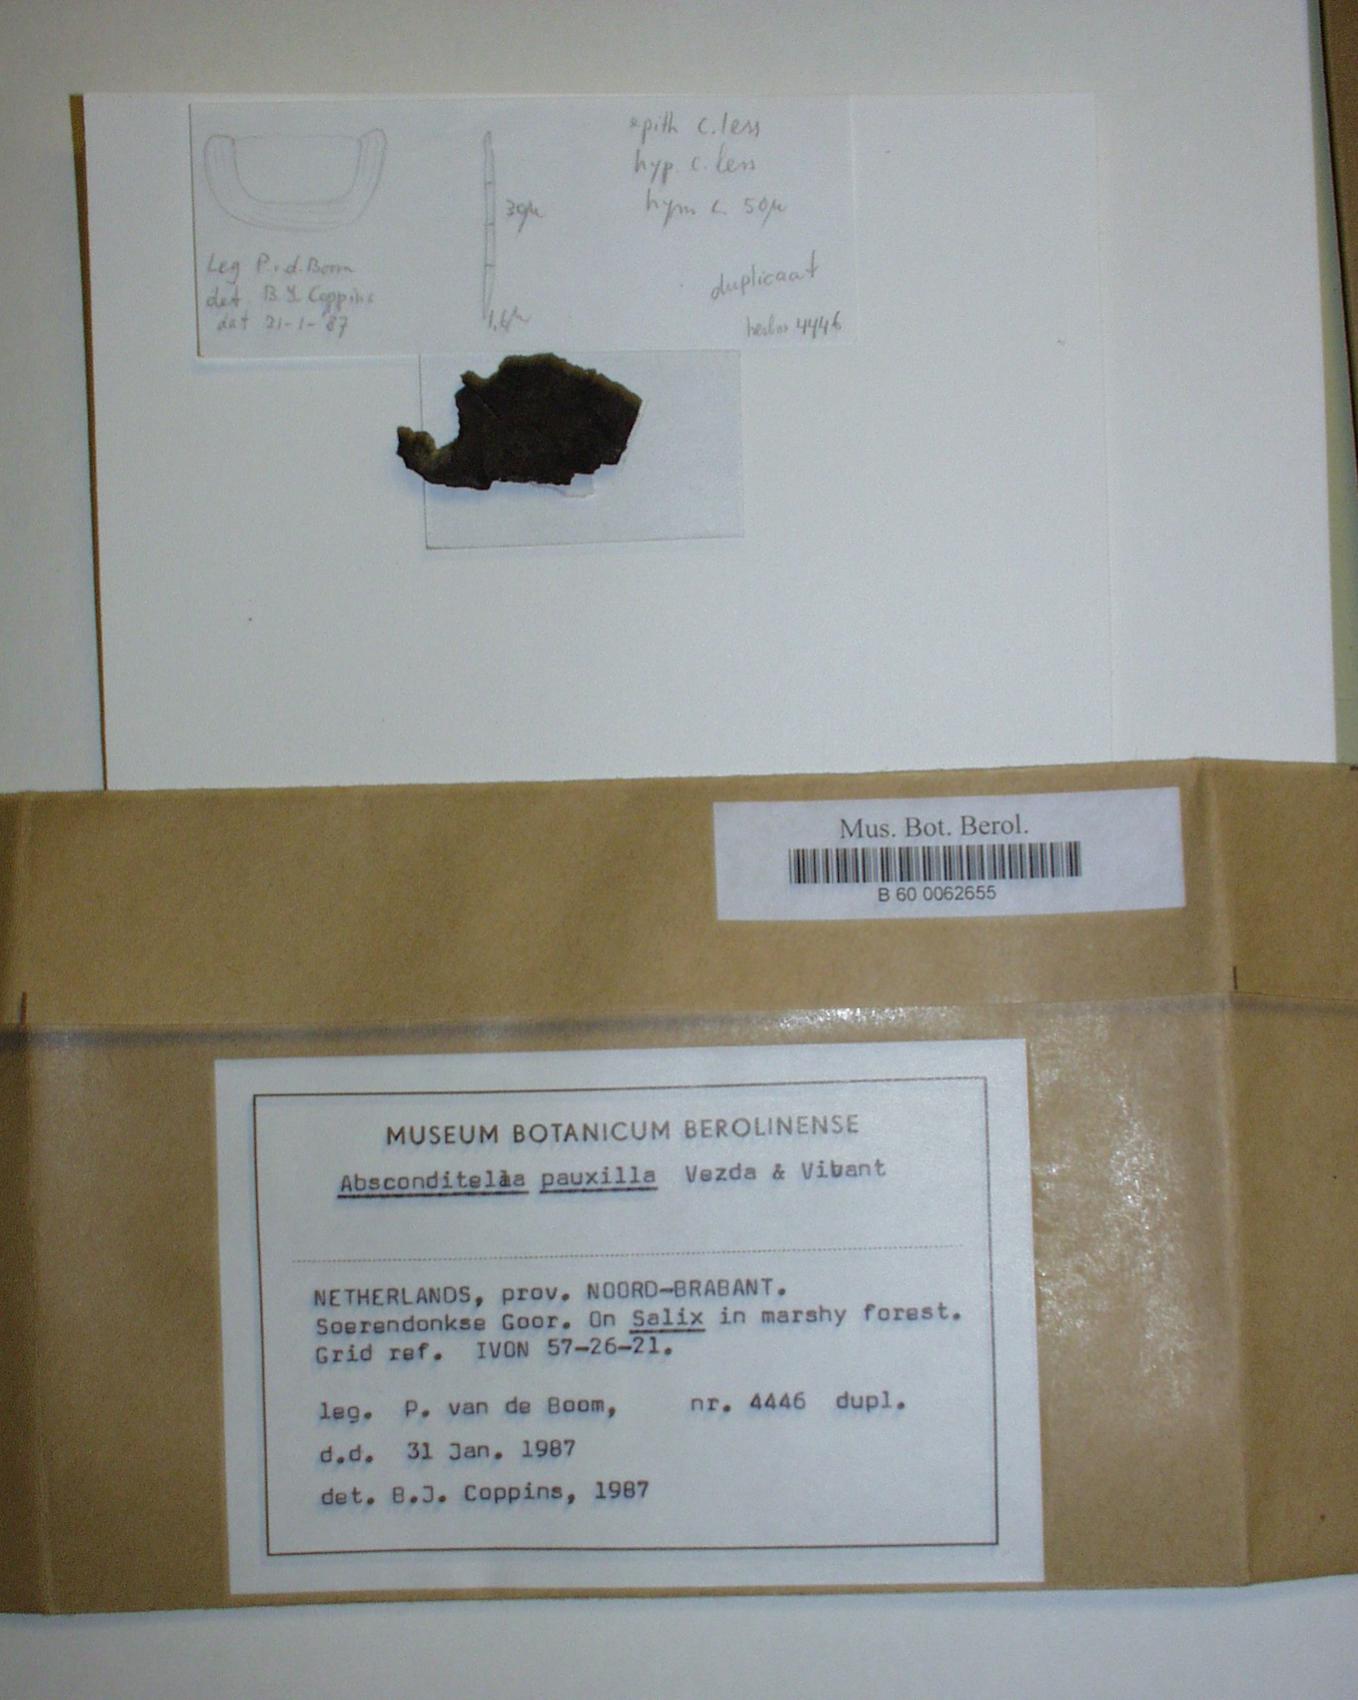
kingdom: Fungi
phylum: Ascomycota
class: Lecanoromycetes
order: Ostropales
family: Stictidaceae
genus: Absconditella
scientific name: Absconditella pauxilla
